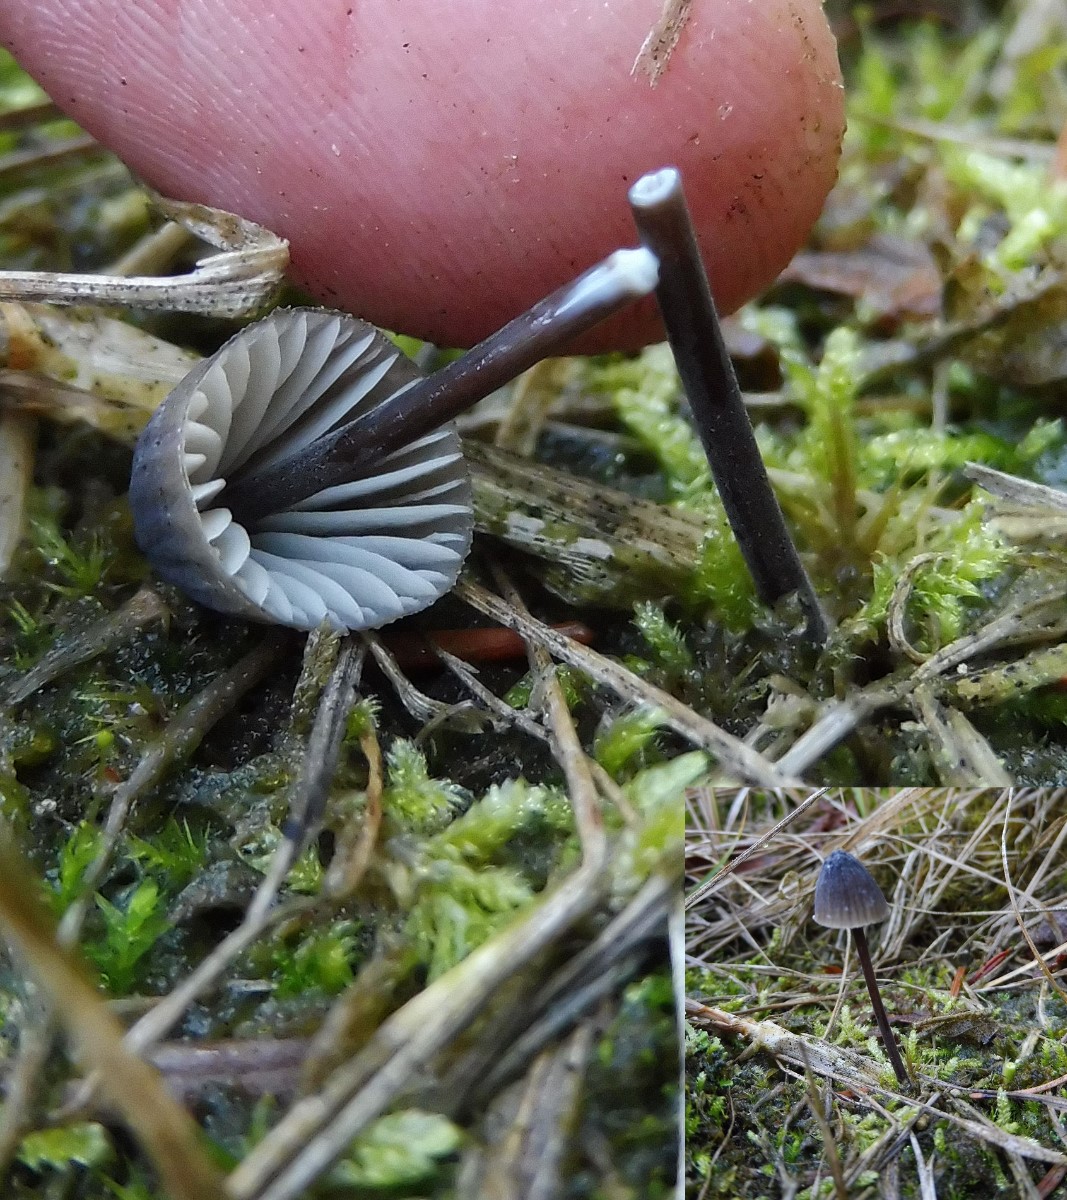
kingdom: Fungi
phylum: Basidiomycota
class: Agaricomycetes
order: Agaricales
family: Mycenaceae
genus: Mycena
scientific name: Mycena galopus
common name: hvidmælket huesvamp
